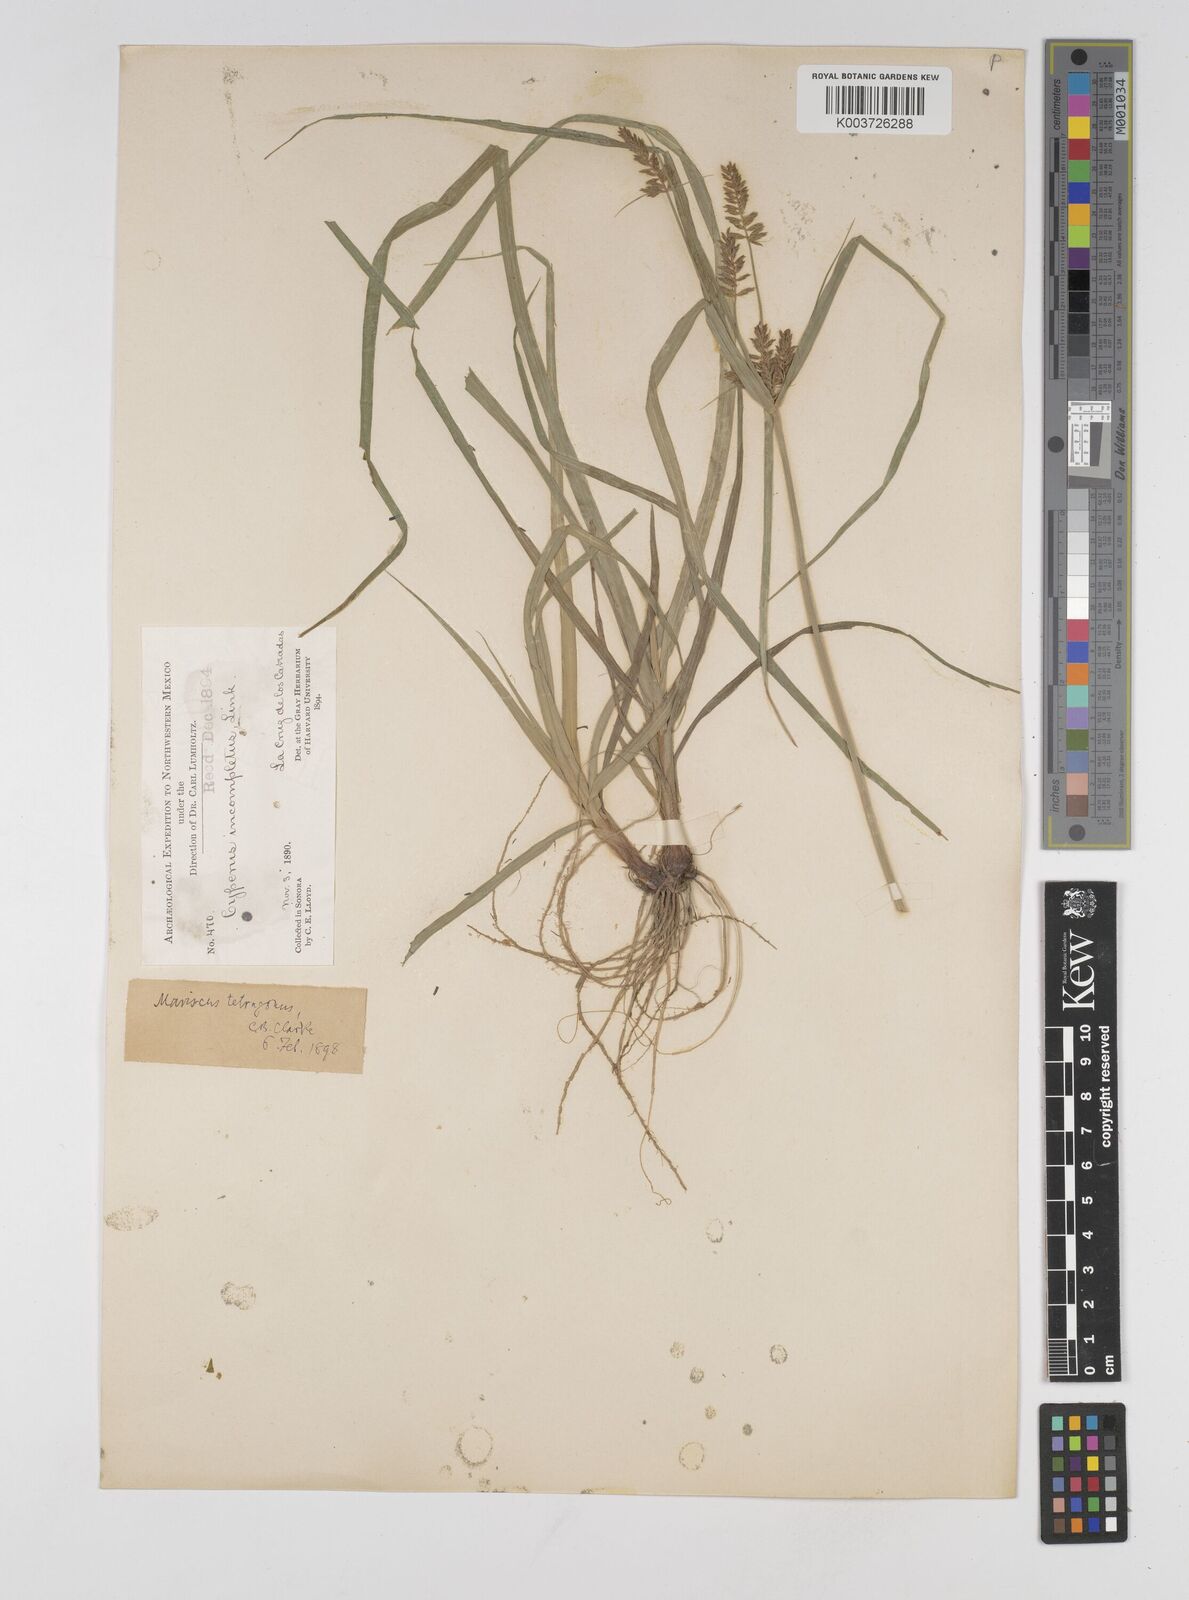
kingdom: Plantae
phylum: Tracheophyta
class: Liliopsida
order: Poales
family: Cyperaceae
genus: Cyperus
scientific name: Cyperus tetragonus
